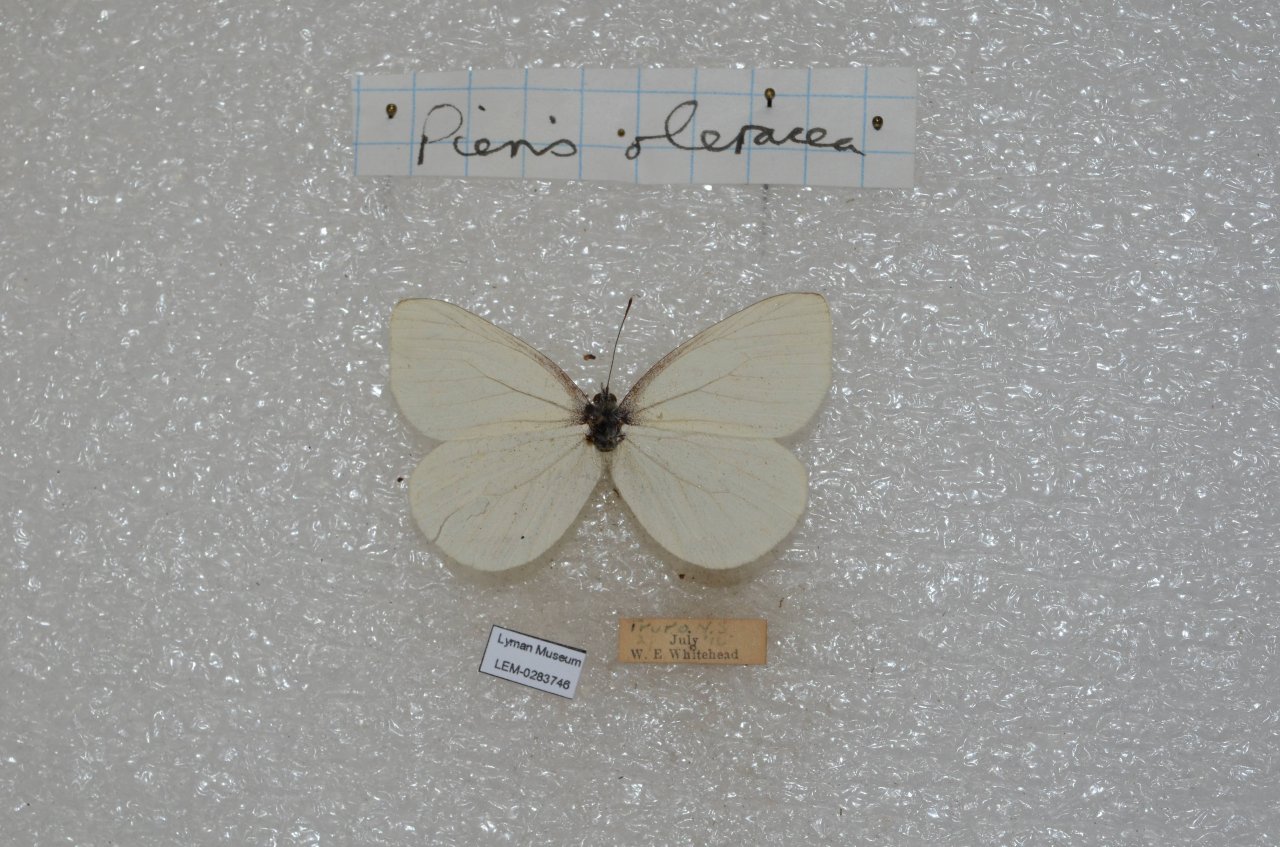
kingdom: Animalia
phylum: Arthropoda
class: Insecta
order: Lepidoptera
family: Pieridae
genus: Pieris
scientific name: Pieris oleracea
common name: Mustard White
